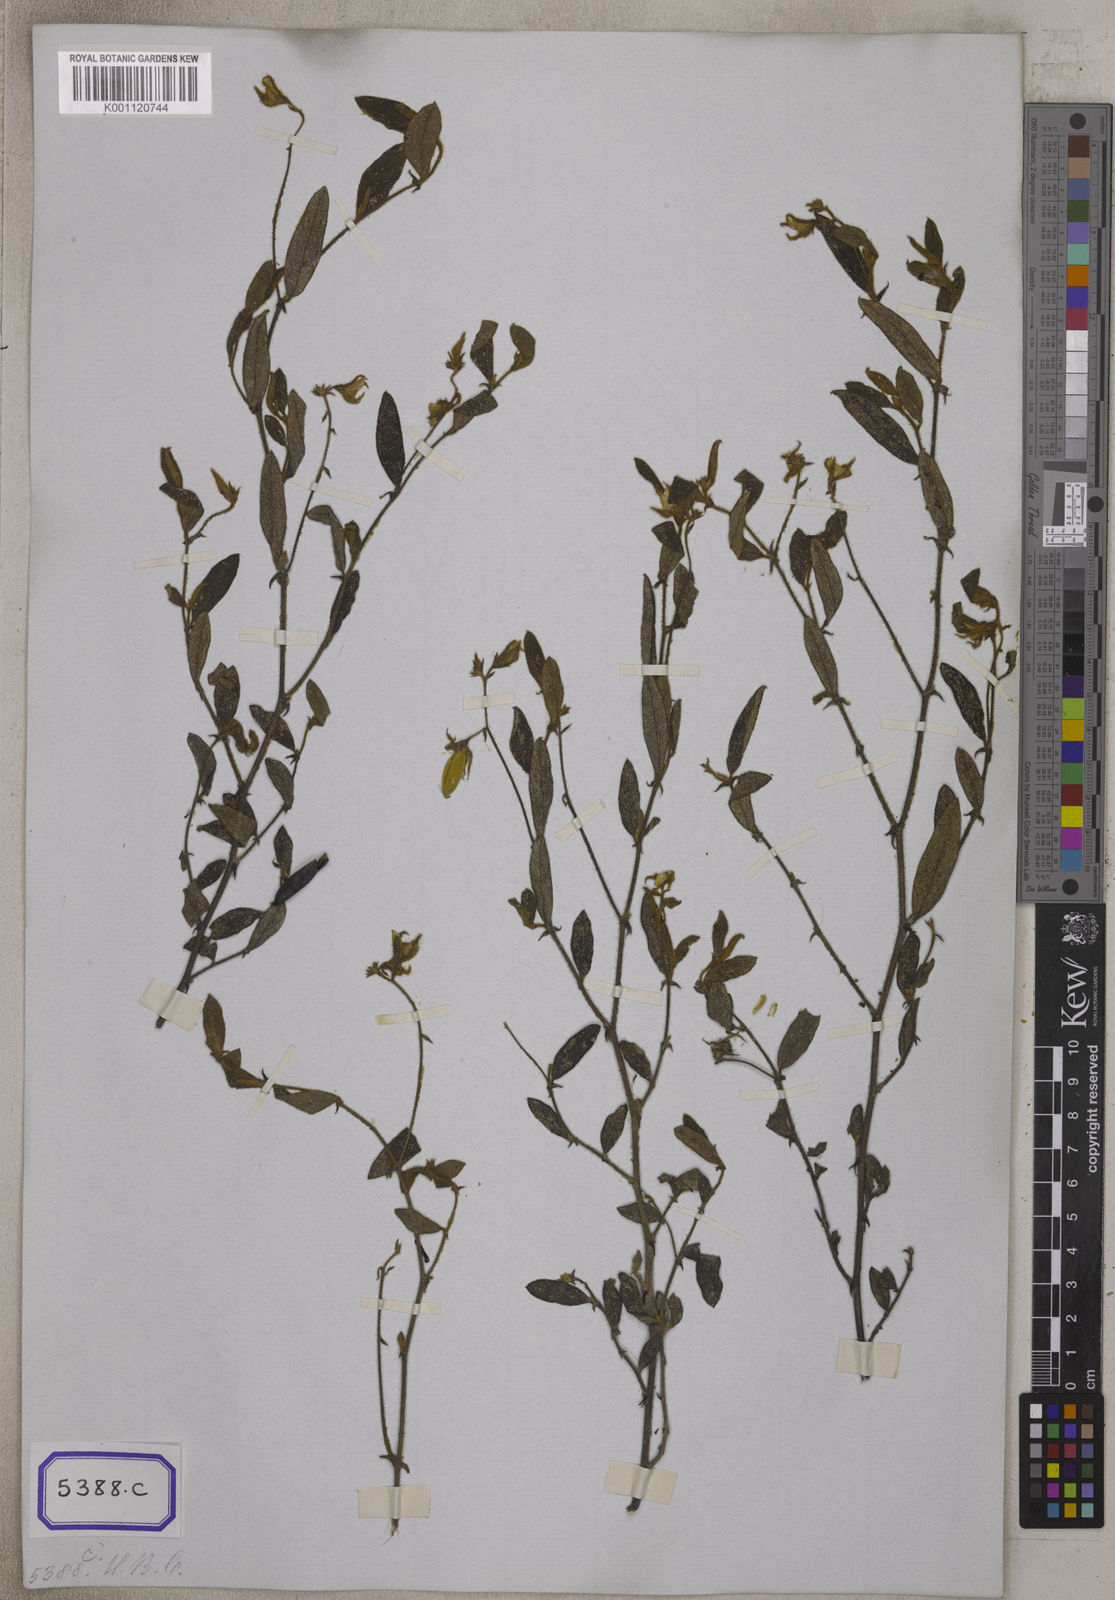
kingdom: Plantae
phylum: Tracheophyta
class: Magnoliopsida
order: Fabales
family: Fabaceae
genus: Crotalaria
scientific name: Crotalaria prostrata
